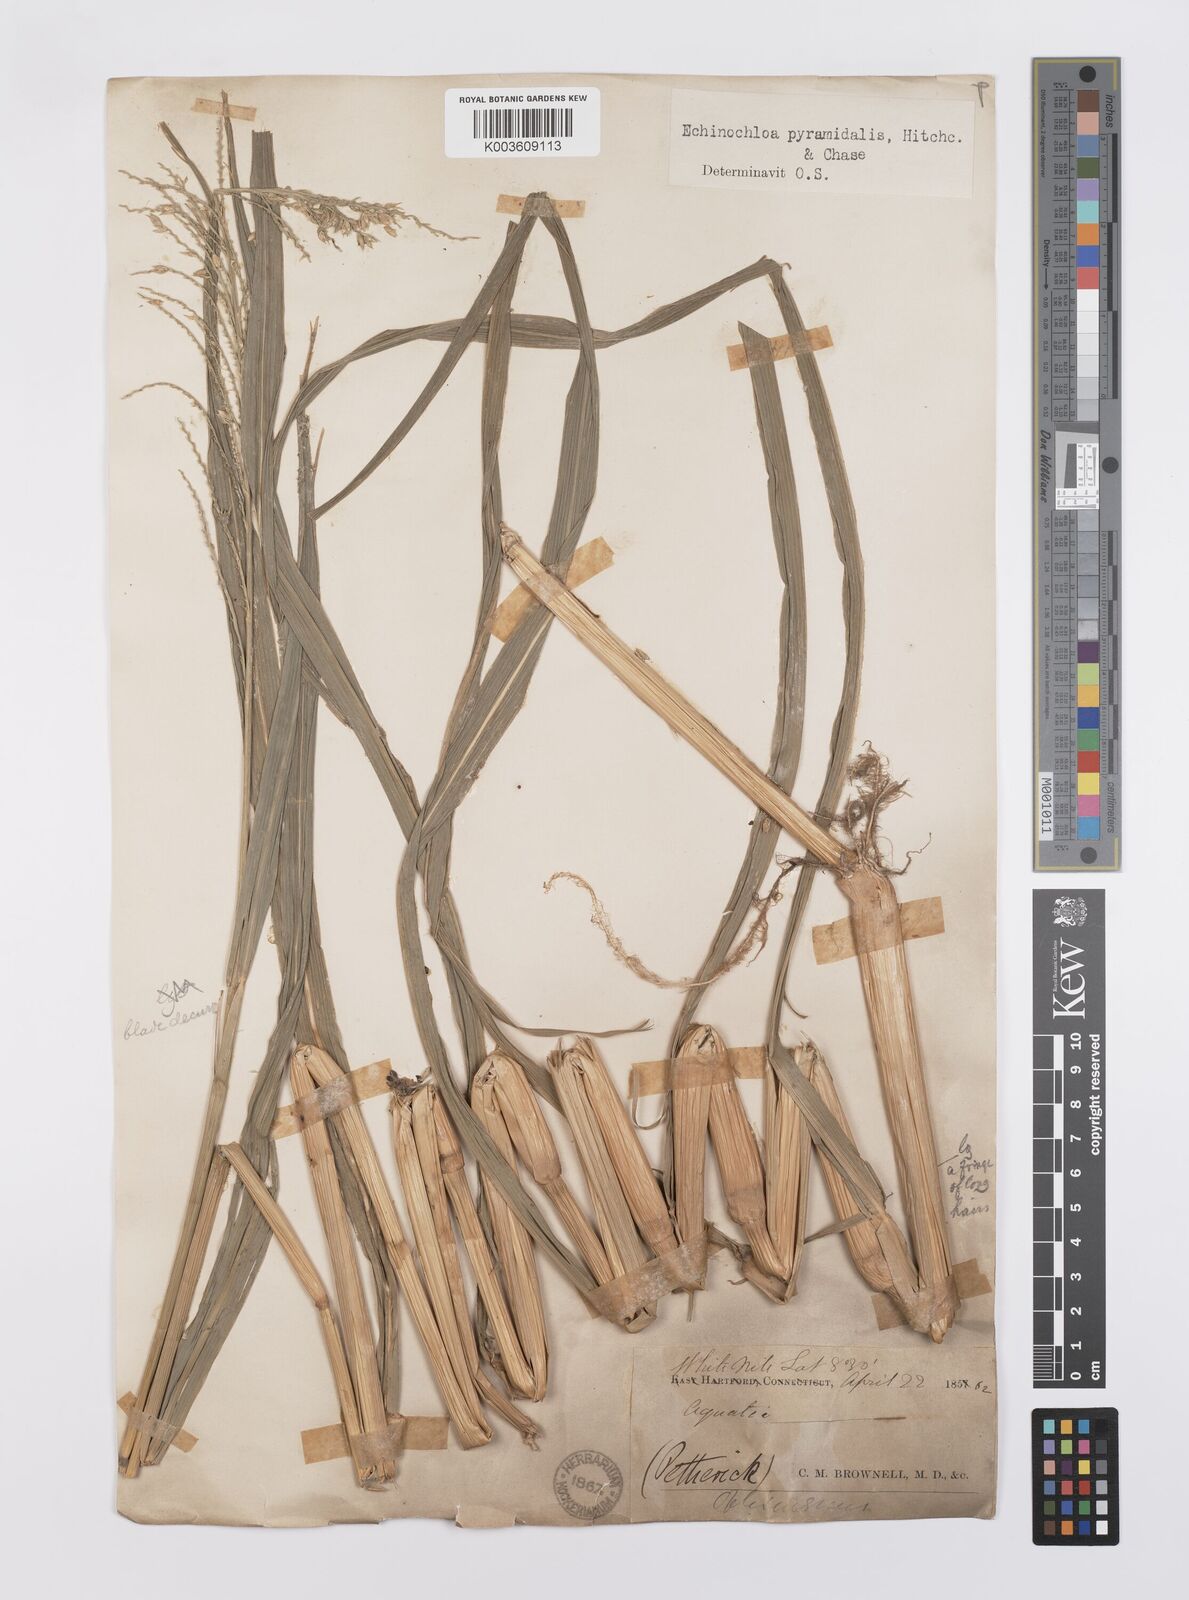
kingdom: Plantae
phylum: Tracheophyta
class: Liliopsida
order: Poales
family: Poaceae
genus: Echinochloa
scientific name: Echinochloa pyramidalis
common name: Antelope grass
